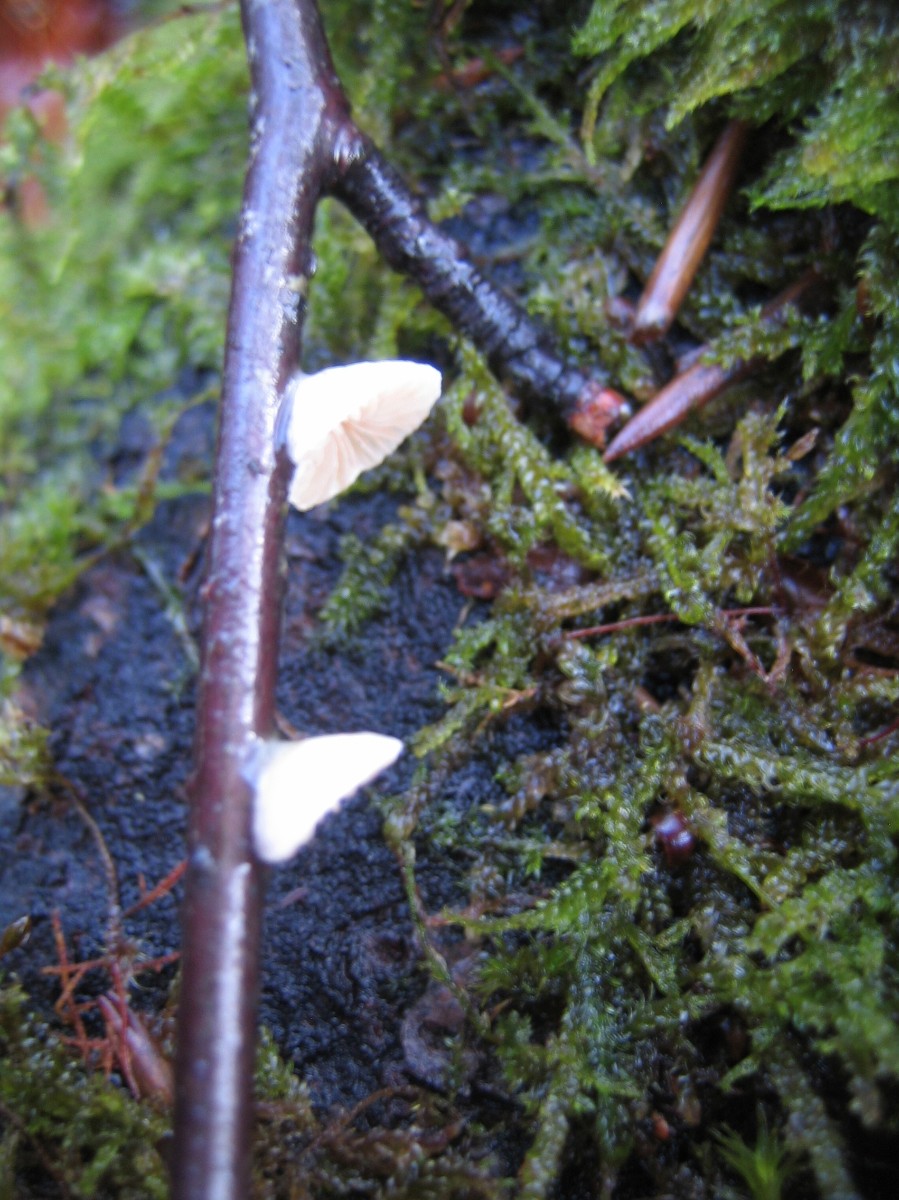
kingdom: Fungi
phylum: Basidiomycota
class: Agaricomycetes
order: Agaricales
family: Crepidotaceae
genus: Crepidotus
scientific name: Crepidotus
